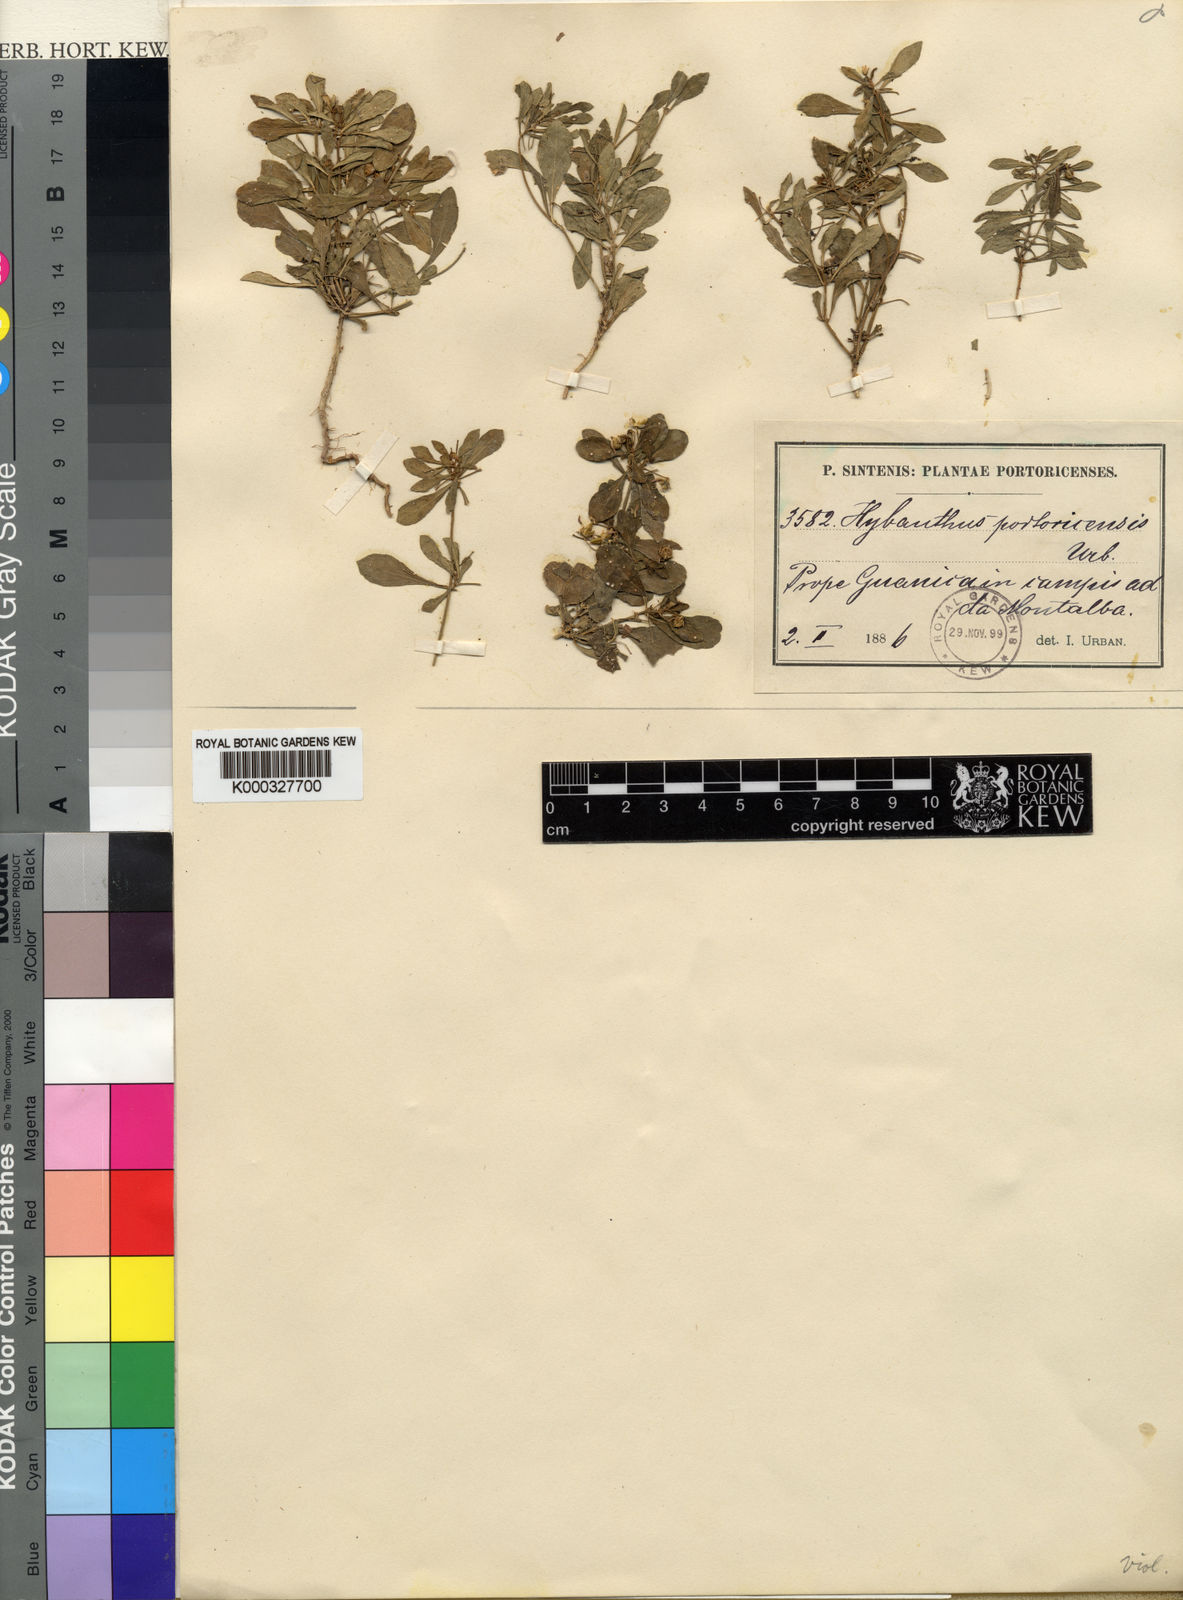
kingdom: Plantae
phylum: Tracheophyta
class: Magnoliopsida
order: Malpighiales
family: Violaceae
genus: Pombalia
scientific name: Pombalia linearifolia
